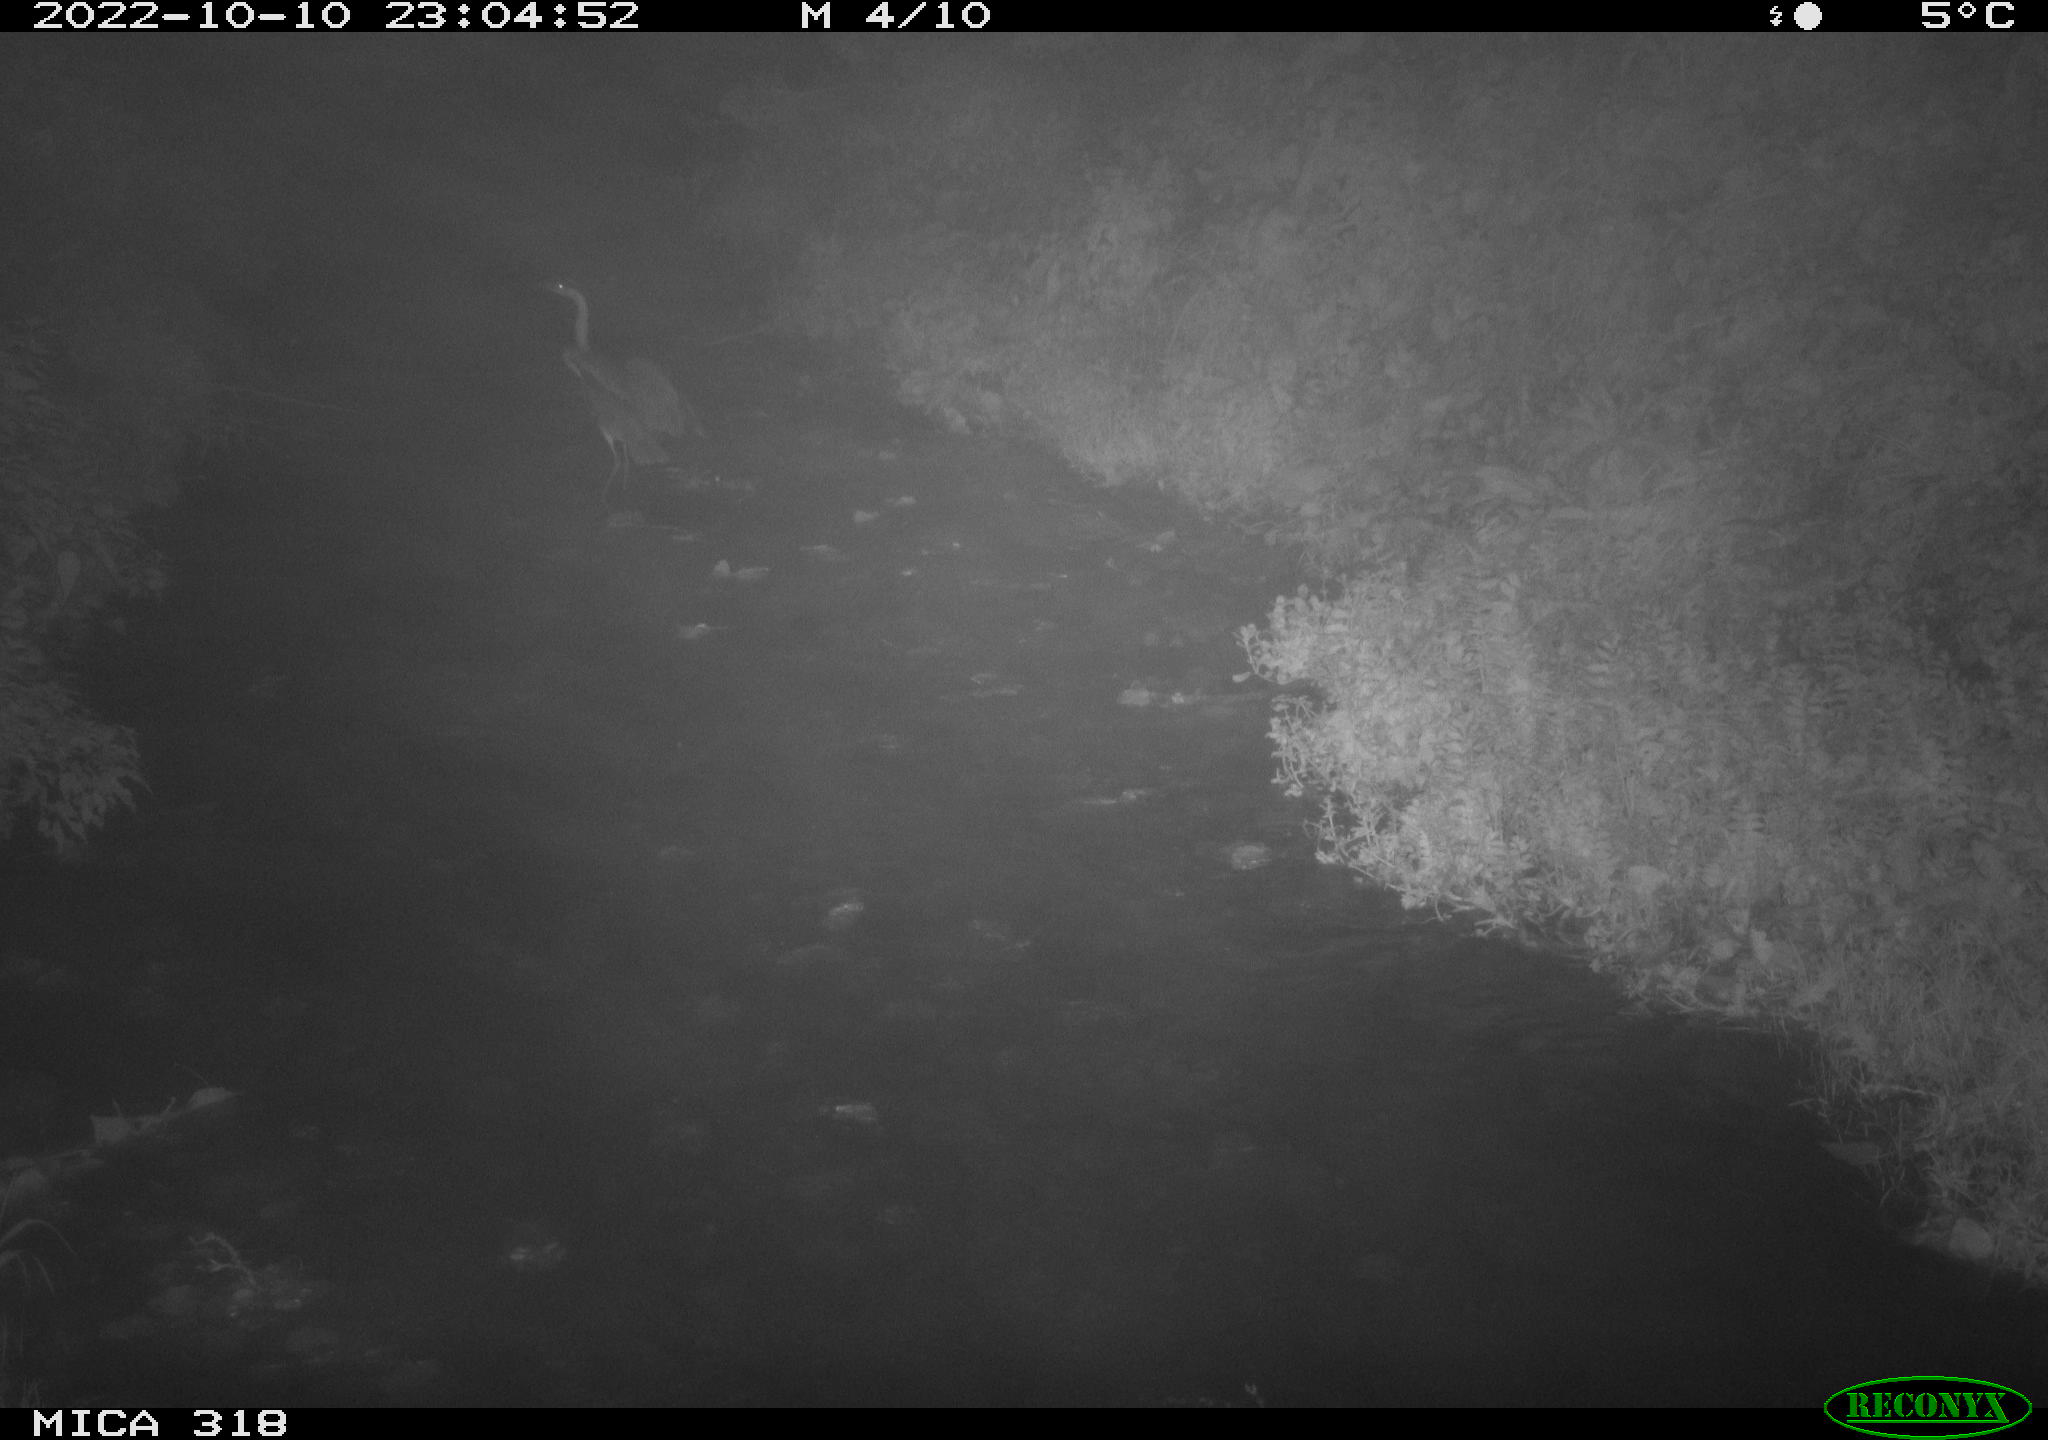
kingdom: Animalia
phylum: Chordata
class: Aves
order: Pelecaniformes
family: Ardeidae
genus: Ardea
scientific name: Ardea cinerea
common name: Grey heron
